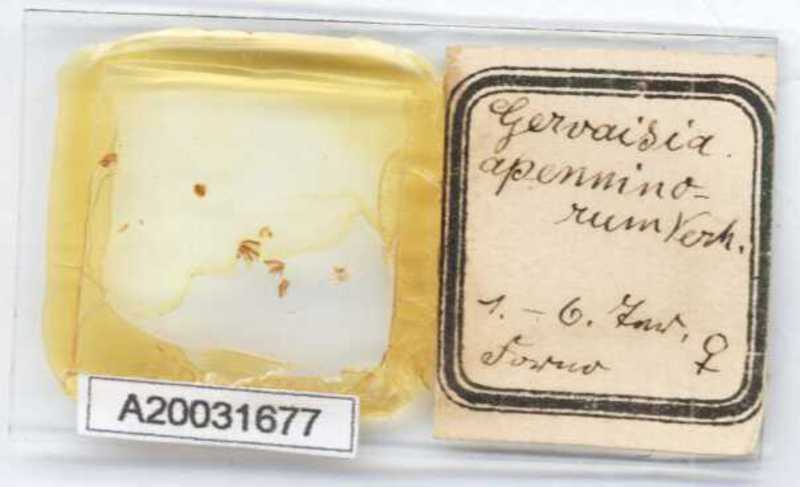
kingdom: Animalia
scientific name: Animalia
